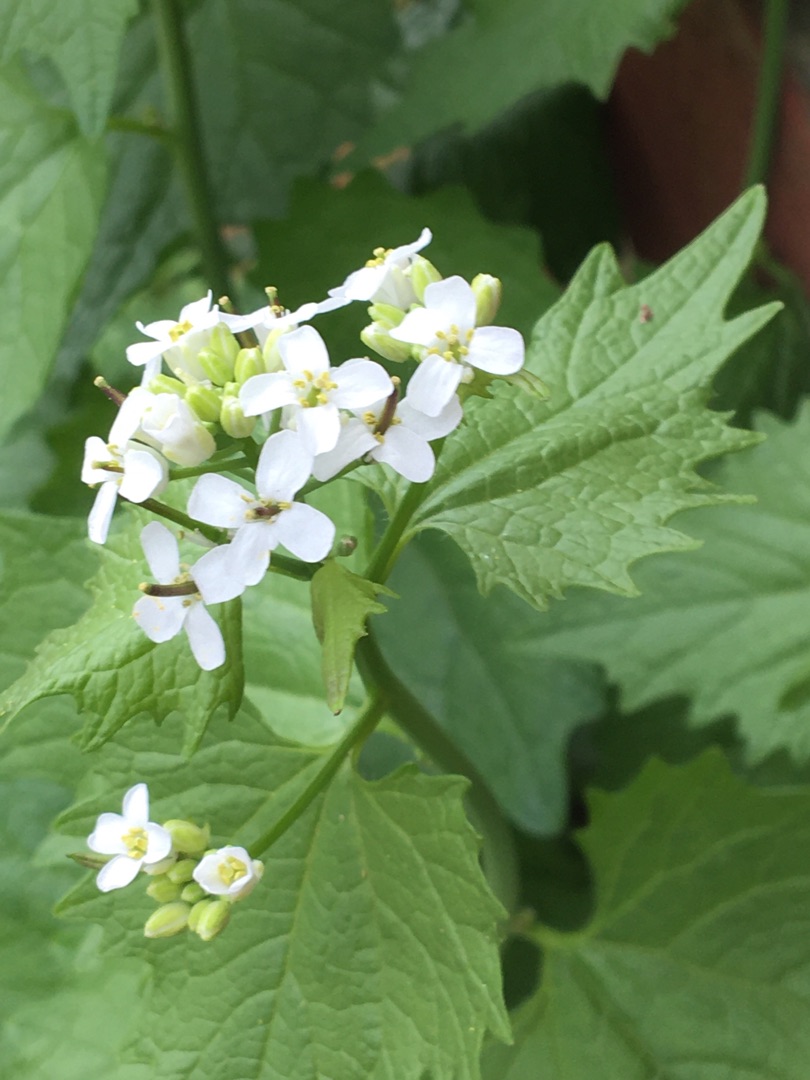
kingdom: Plantae
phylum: Tracheophyta
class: Magnoliopsida
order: Brassicales
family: Brassicaceae
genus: Alliaria
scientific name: Alliaria petiolata
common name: Løgkarse
